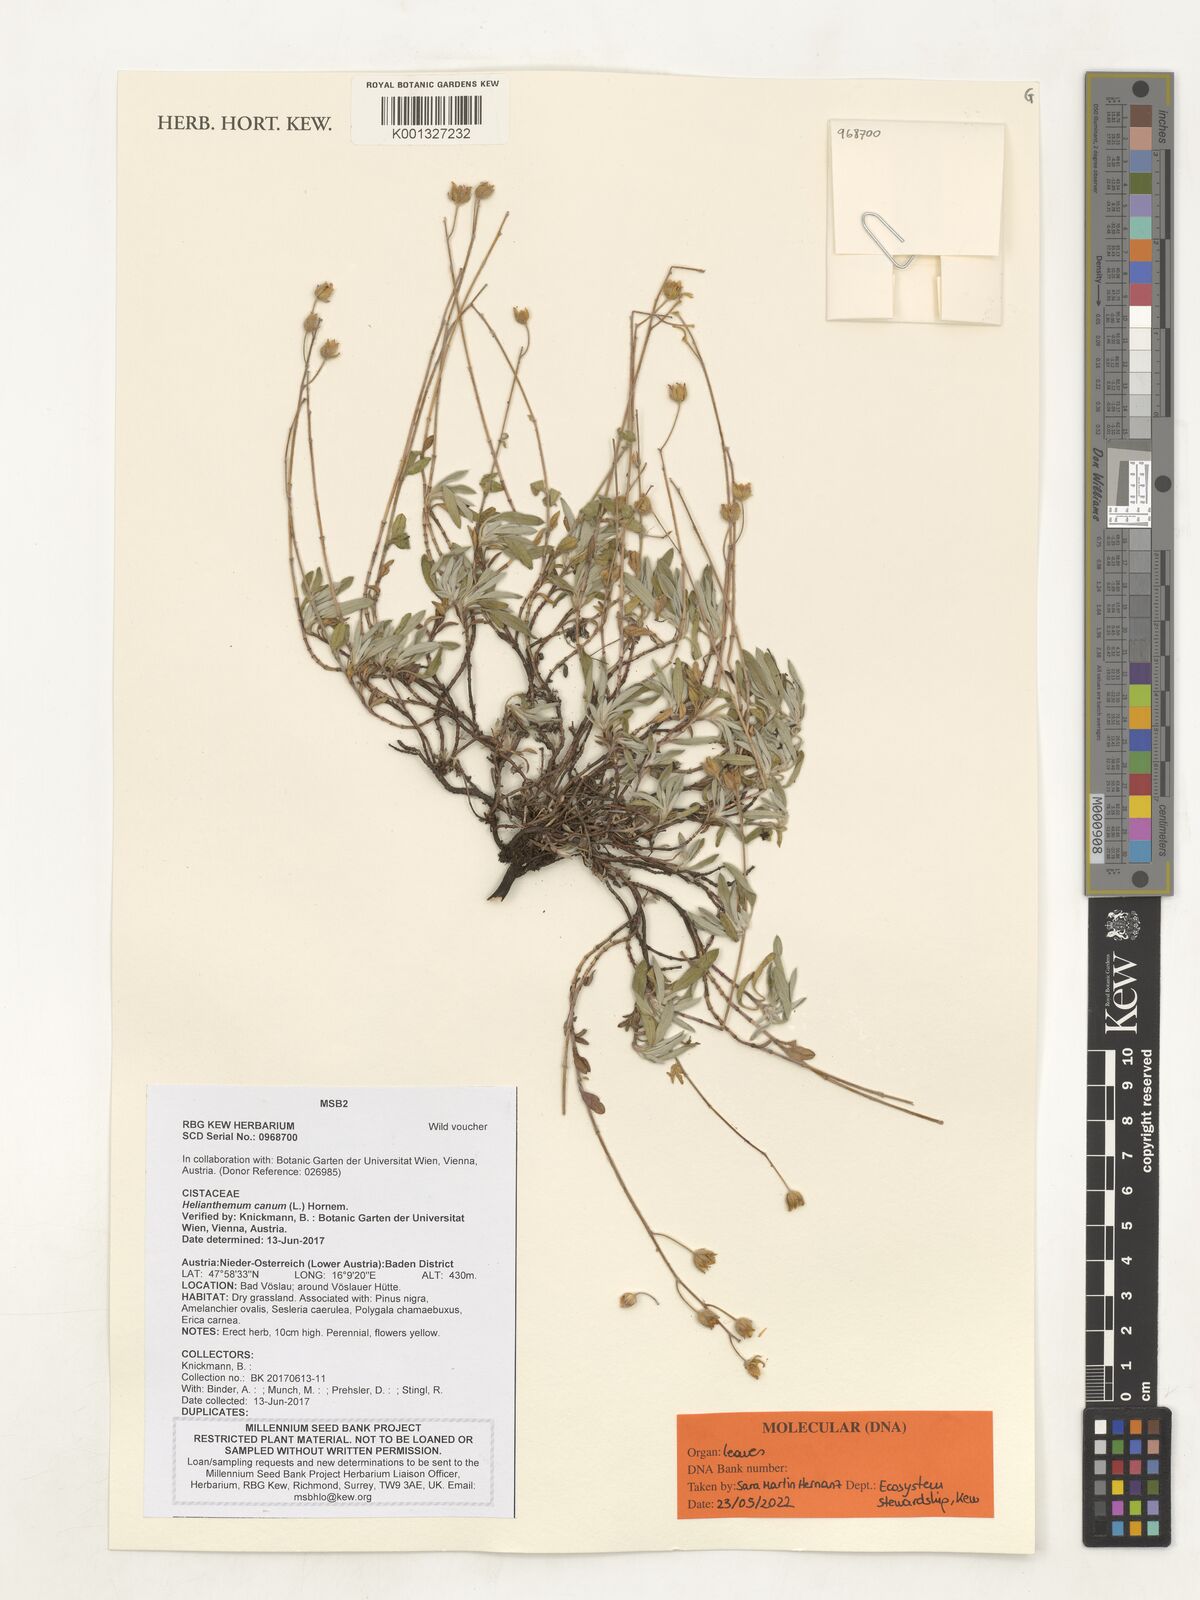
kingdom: Plantae
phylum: Tracheophyta
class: Magnoliopsida
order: Malvales
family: Cistaceae
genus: Helianthemum
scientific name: Helianthemum canum
